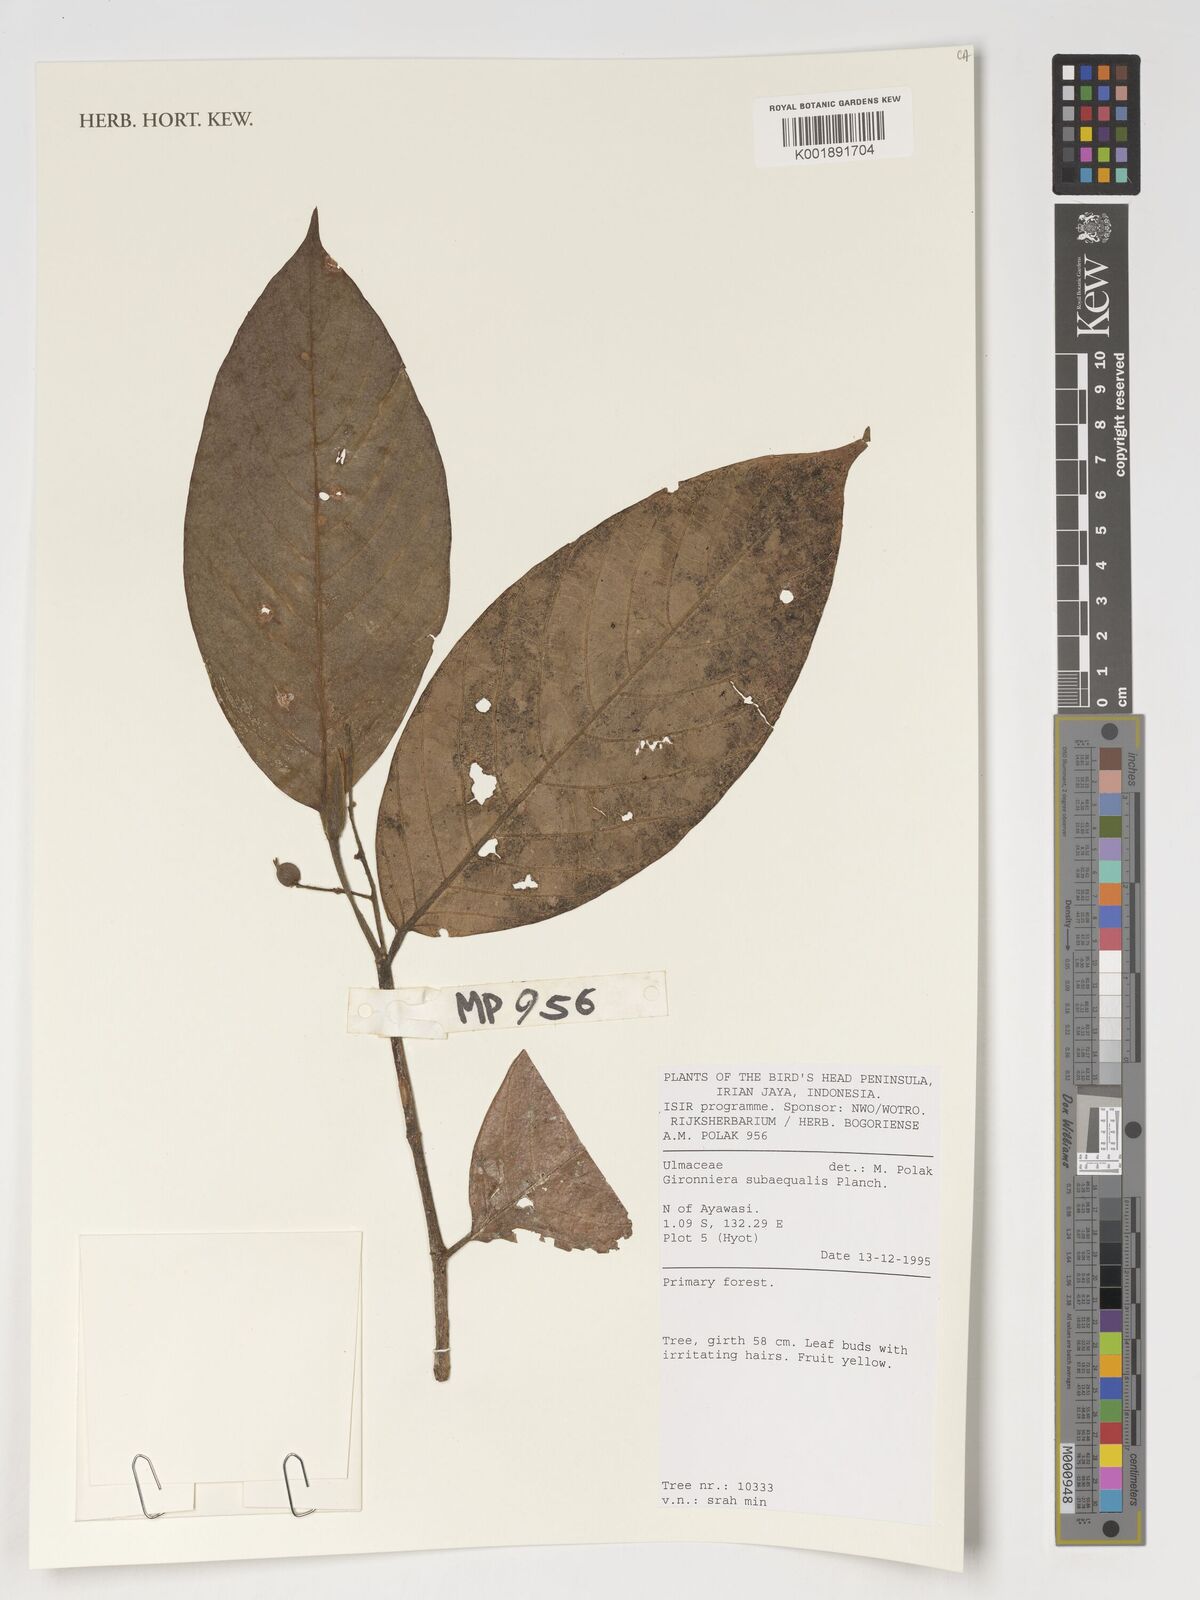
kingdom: Plantae
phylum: Tracheophyta
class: Magnoliopsida
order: Rosales
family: Cannabaceae
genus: Gironniera
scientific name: Gironniera subaequalis
